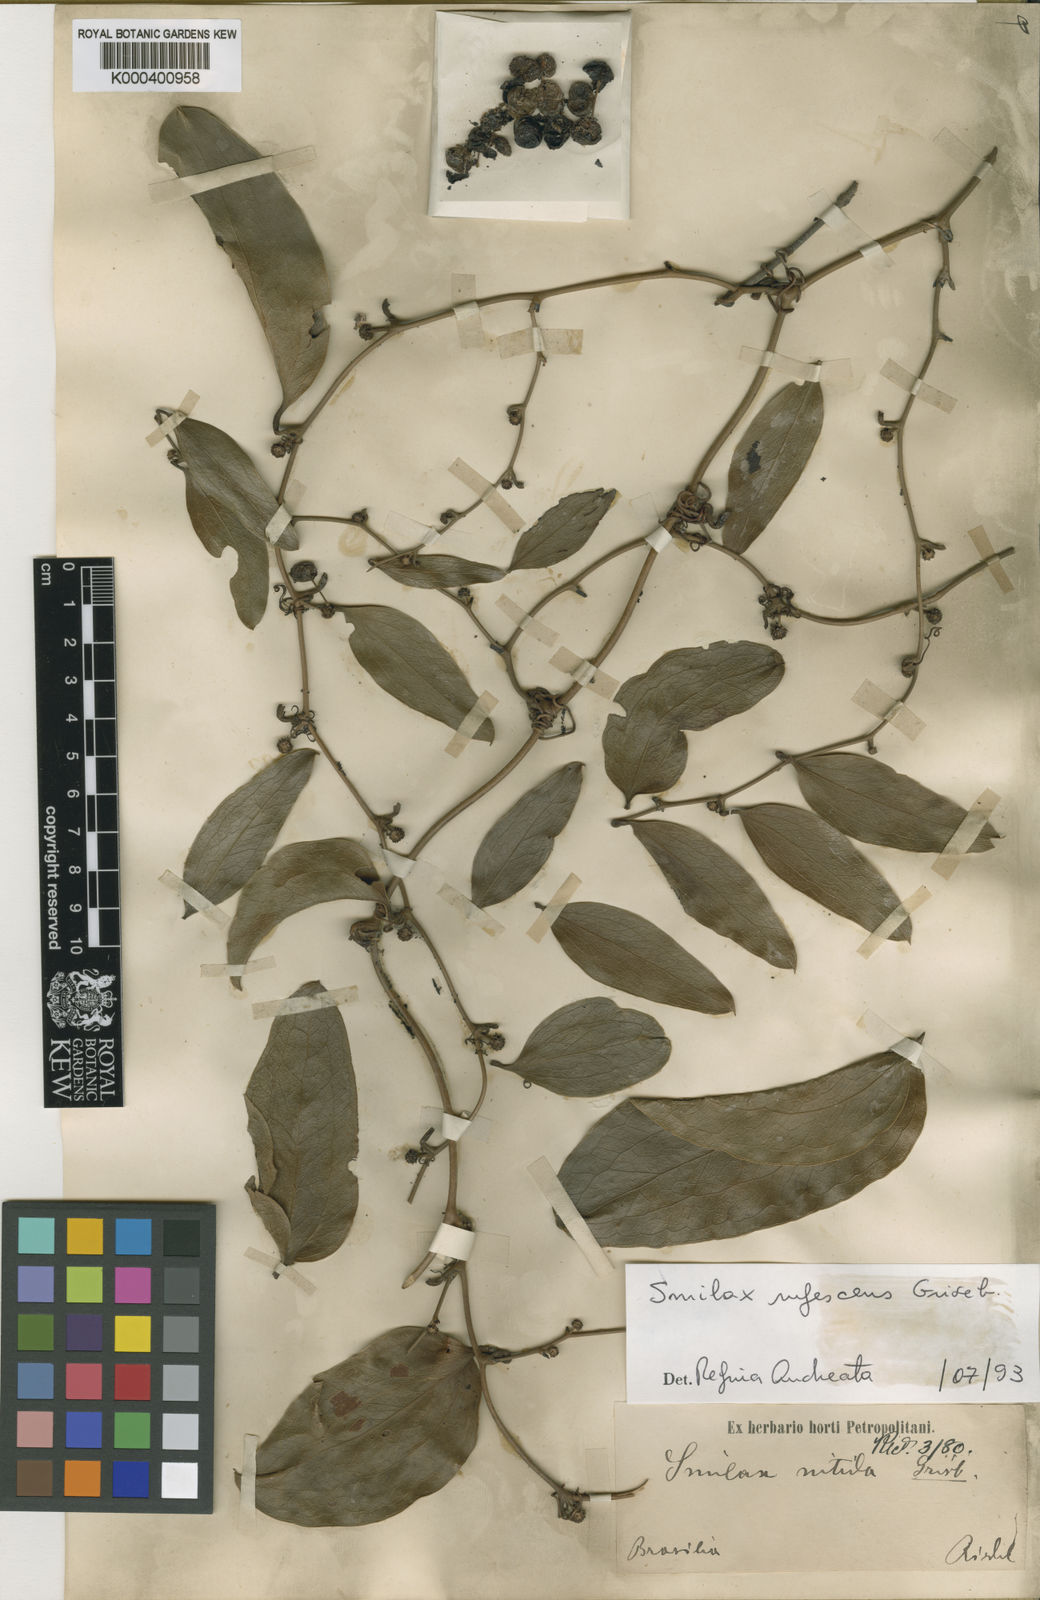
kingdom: Plantae
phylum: Tracheophyta
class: Liliopsida
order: Liliales
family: Smilacaceae
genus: Smilax
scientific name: Smilax rufescens
